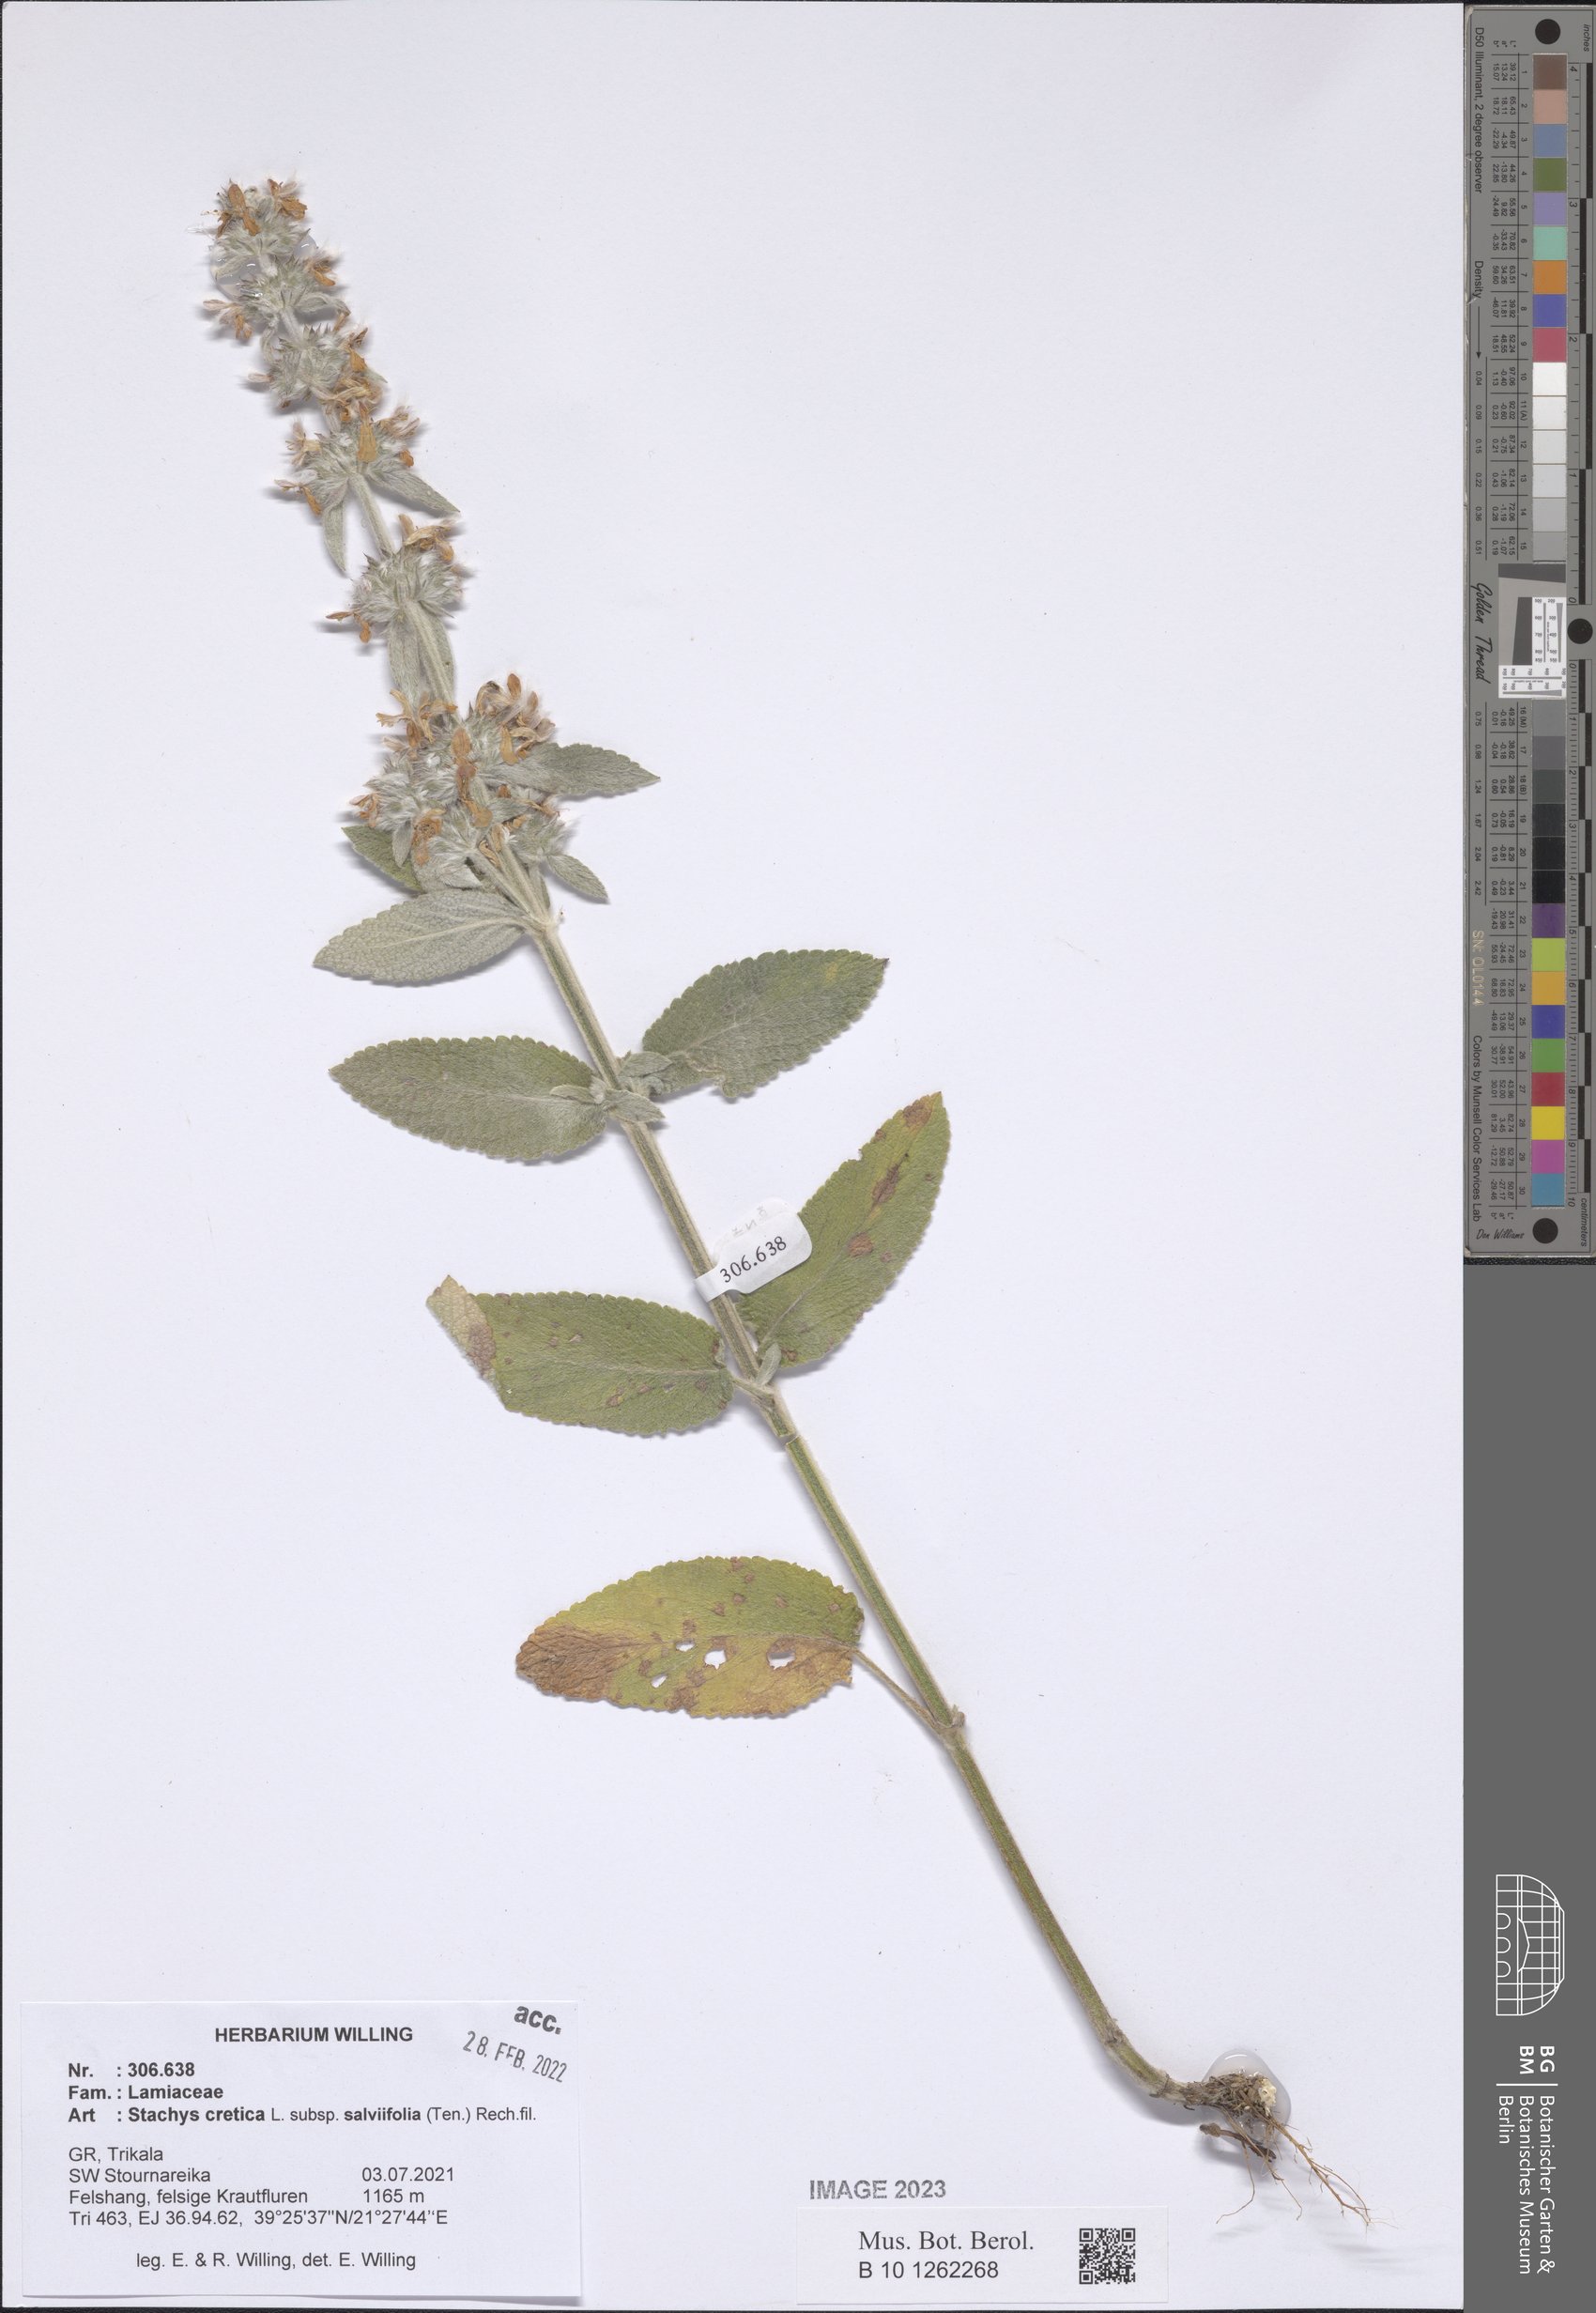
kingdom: Plantae
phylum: Tracheophyta
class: Magnoliopsida
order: Lamiales
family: Lamiaceae
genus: Stachys
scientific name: Stachys cretica
